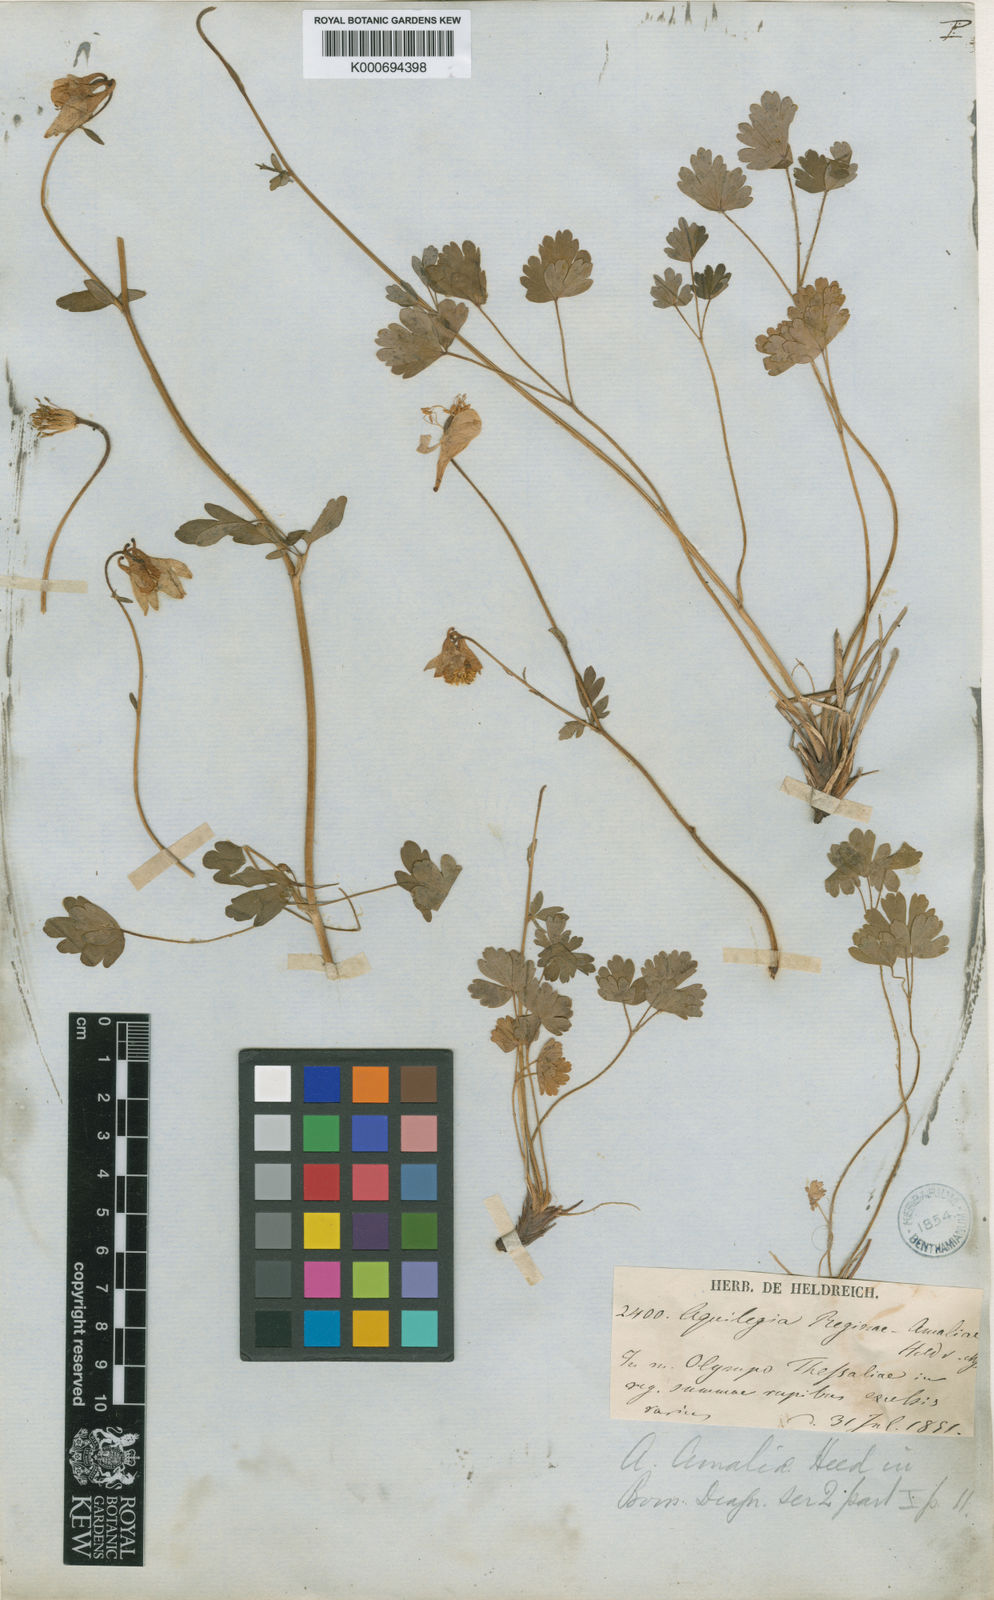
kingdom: Plantae
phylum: Tracheophyta
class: Magnoliopsida
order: Ranunculales
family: Ranunculaceae
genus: Aquilegia
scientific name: Aquilegia ottonis
